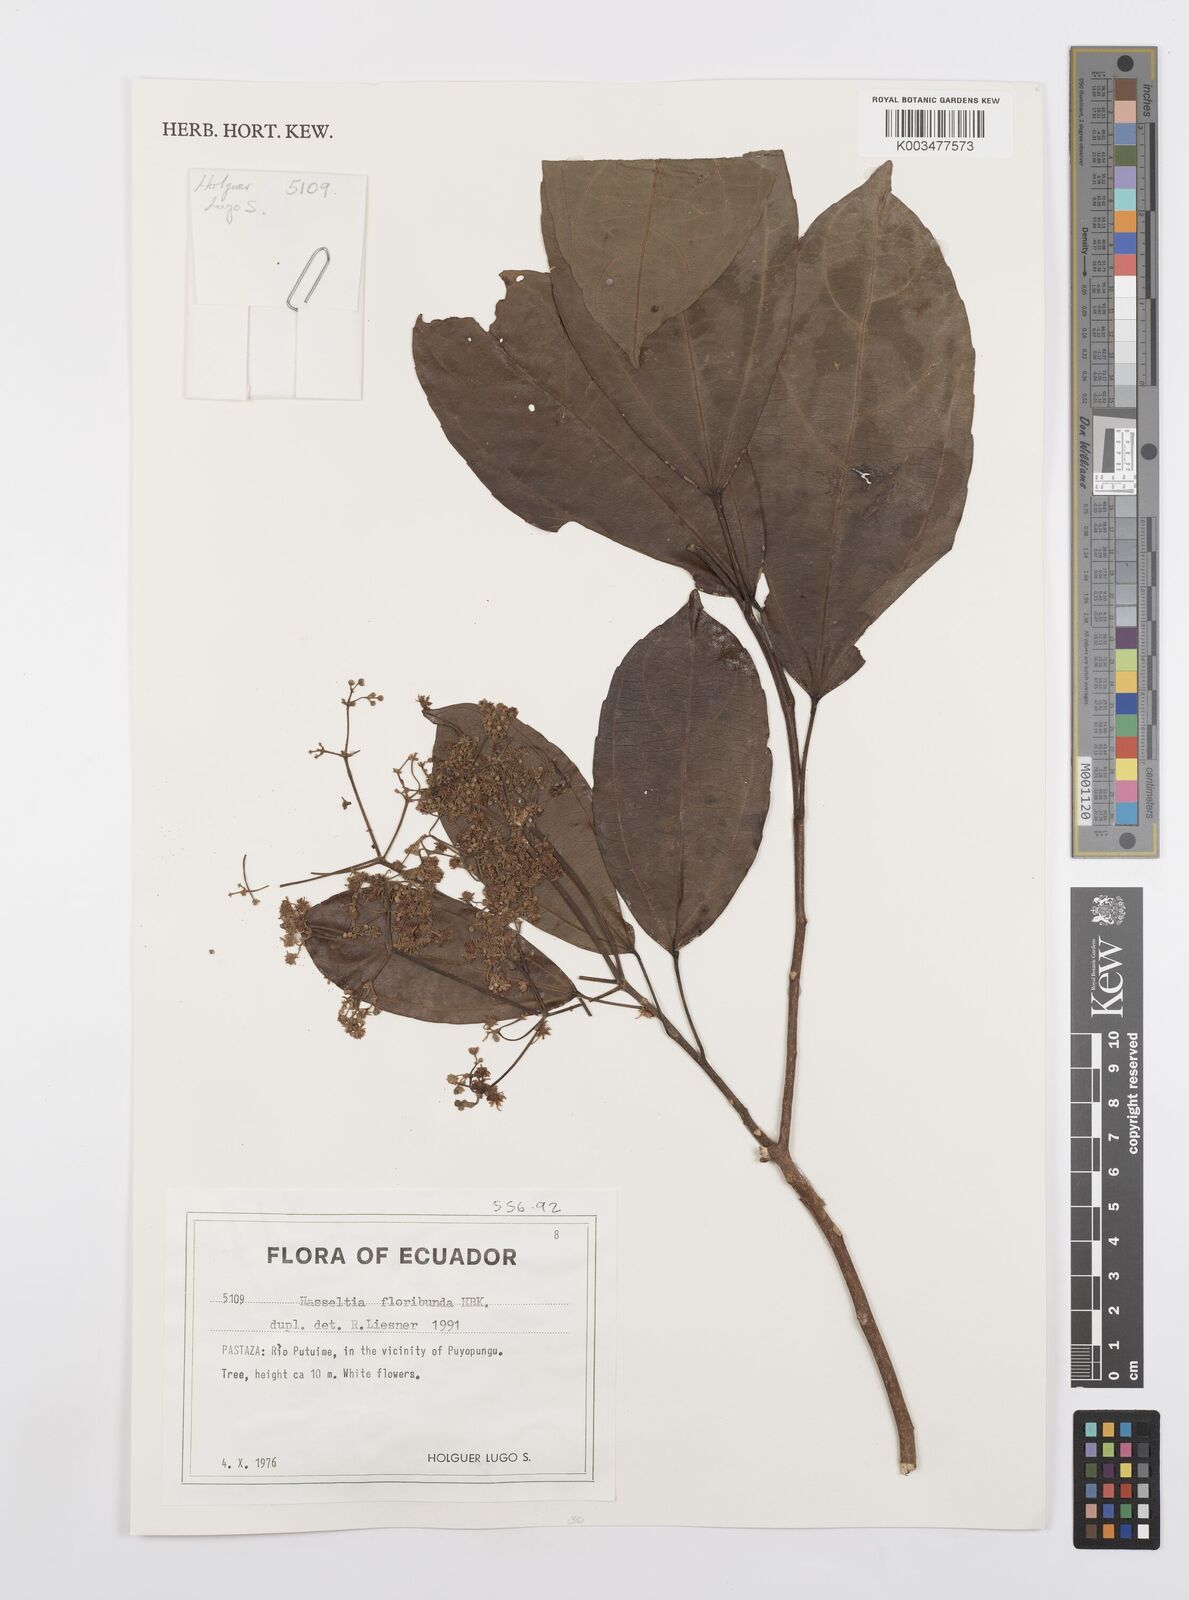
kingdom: Plantae
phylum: Tracheophyta
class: Magnoliopsida
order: Malpighiales
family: Salicaceae
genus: Hasseltia
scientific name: Hasseltia floribunda
